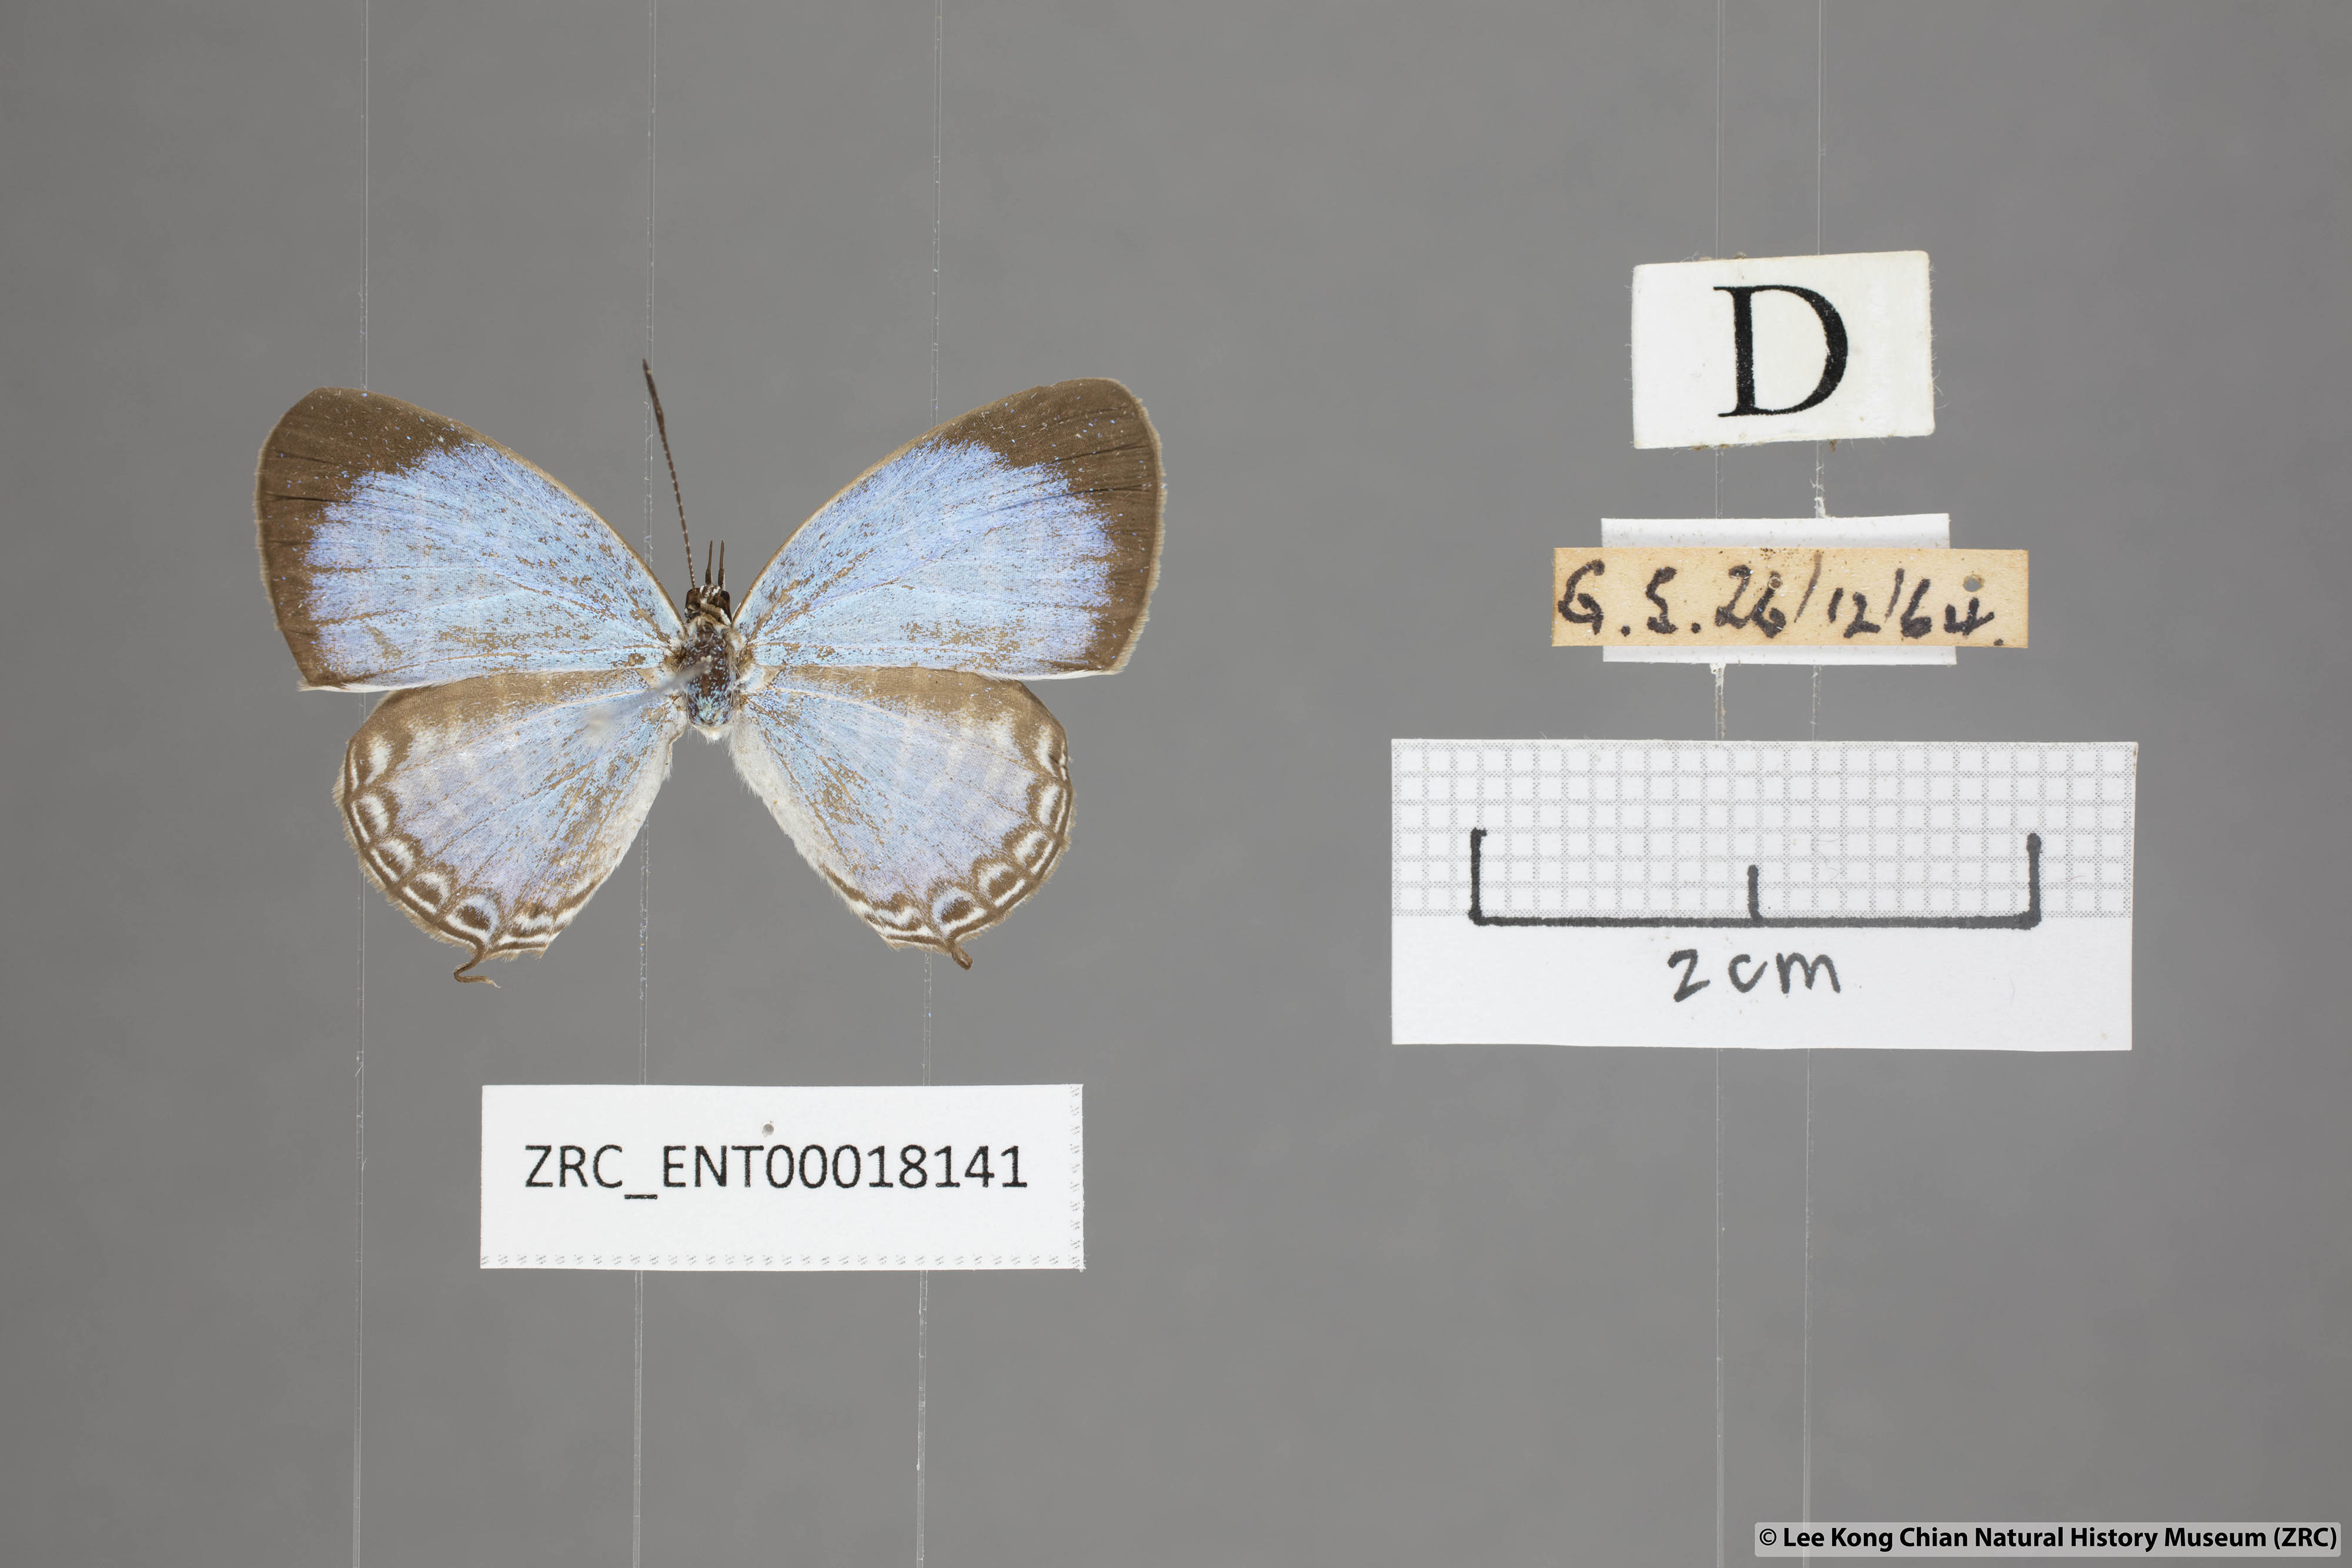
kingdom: Animalia
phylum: Arthropoda
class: Insecta
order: Lepidoptera
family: Lycaenidae
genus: Jamides
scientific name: Jamides malaccanus
